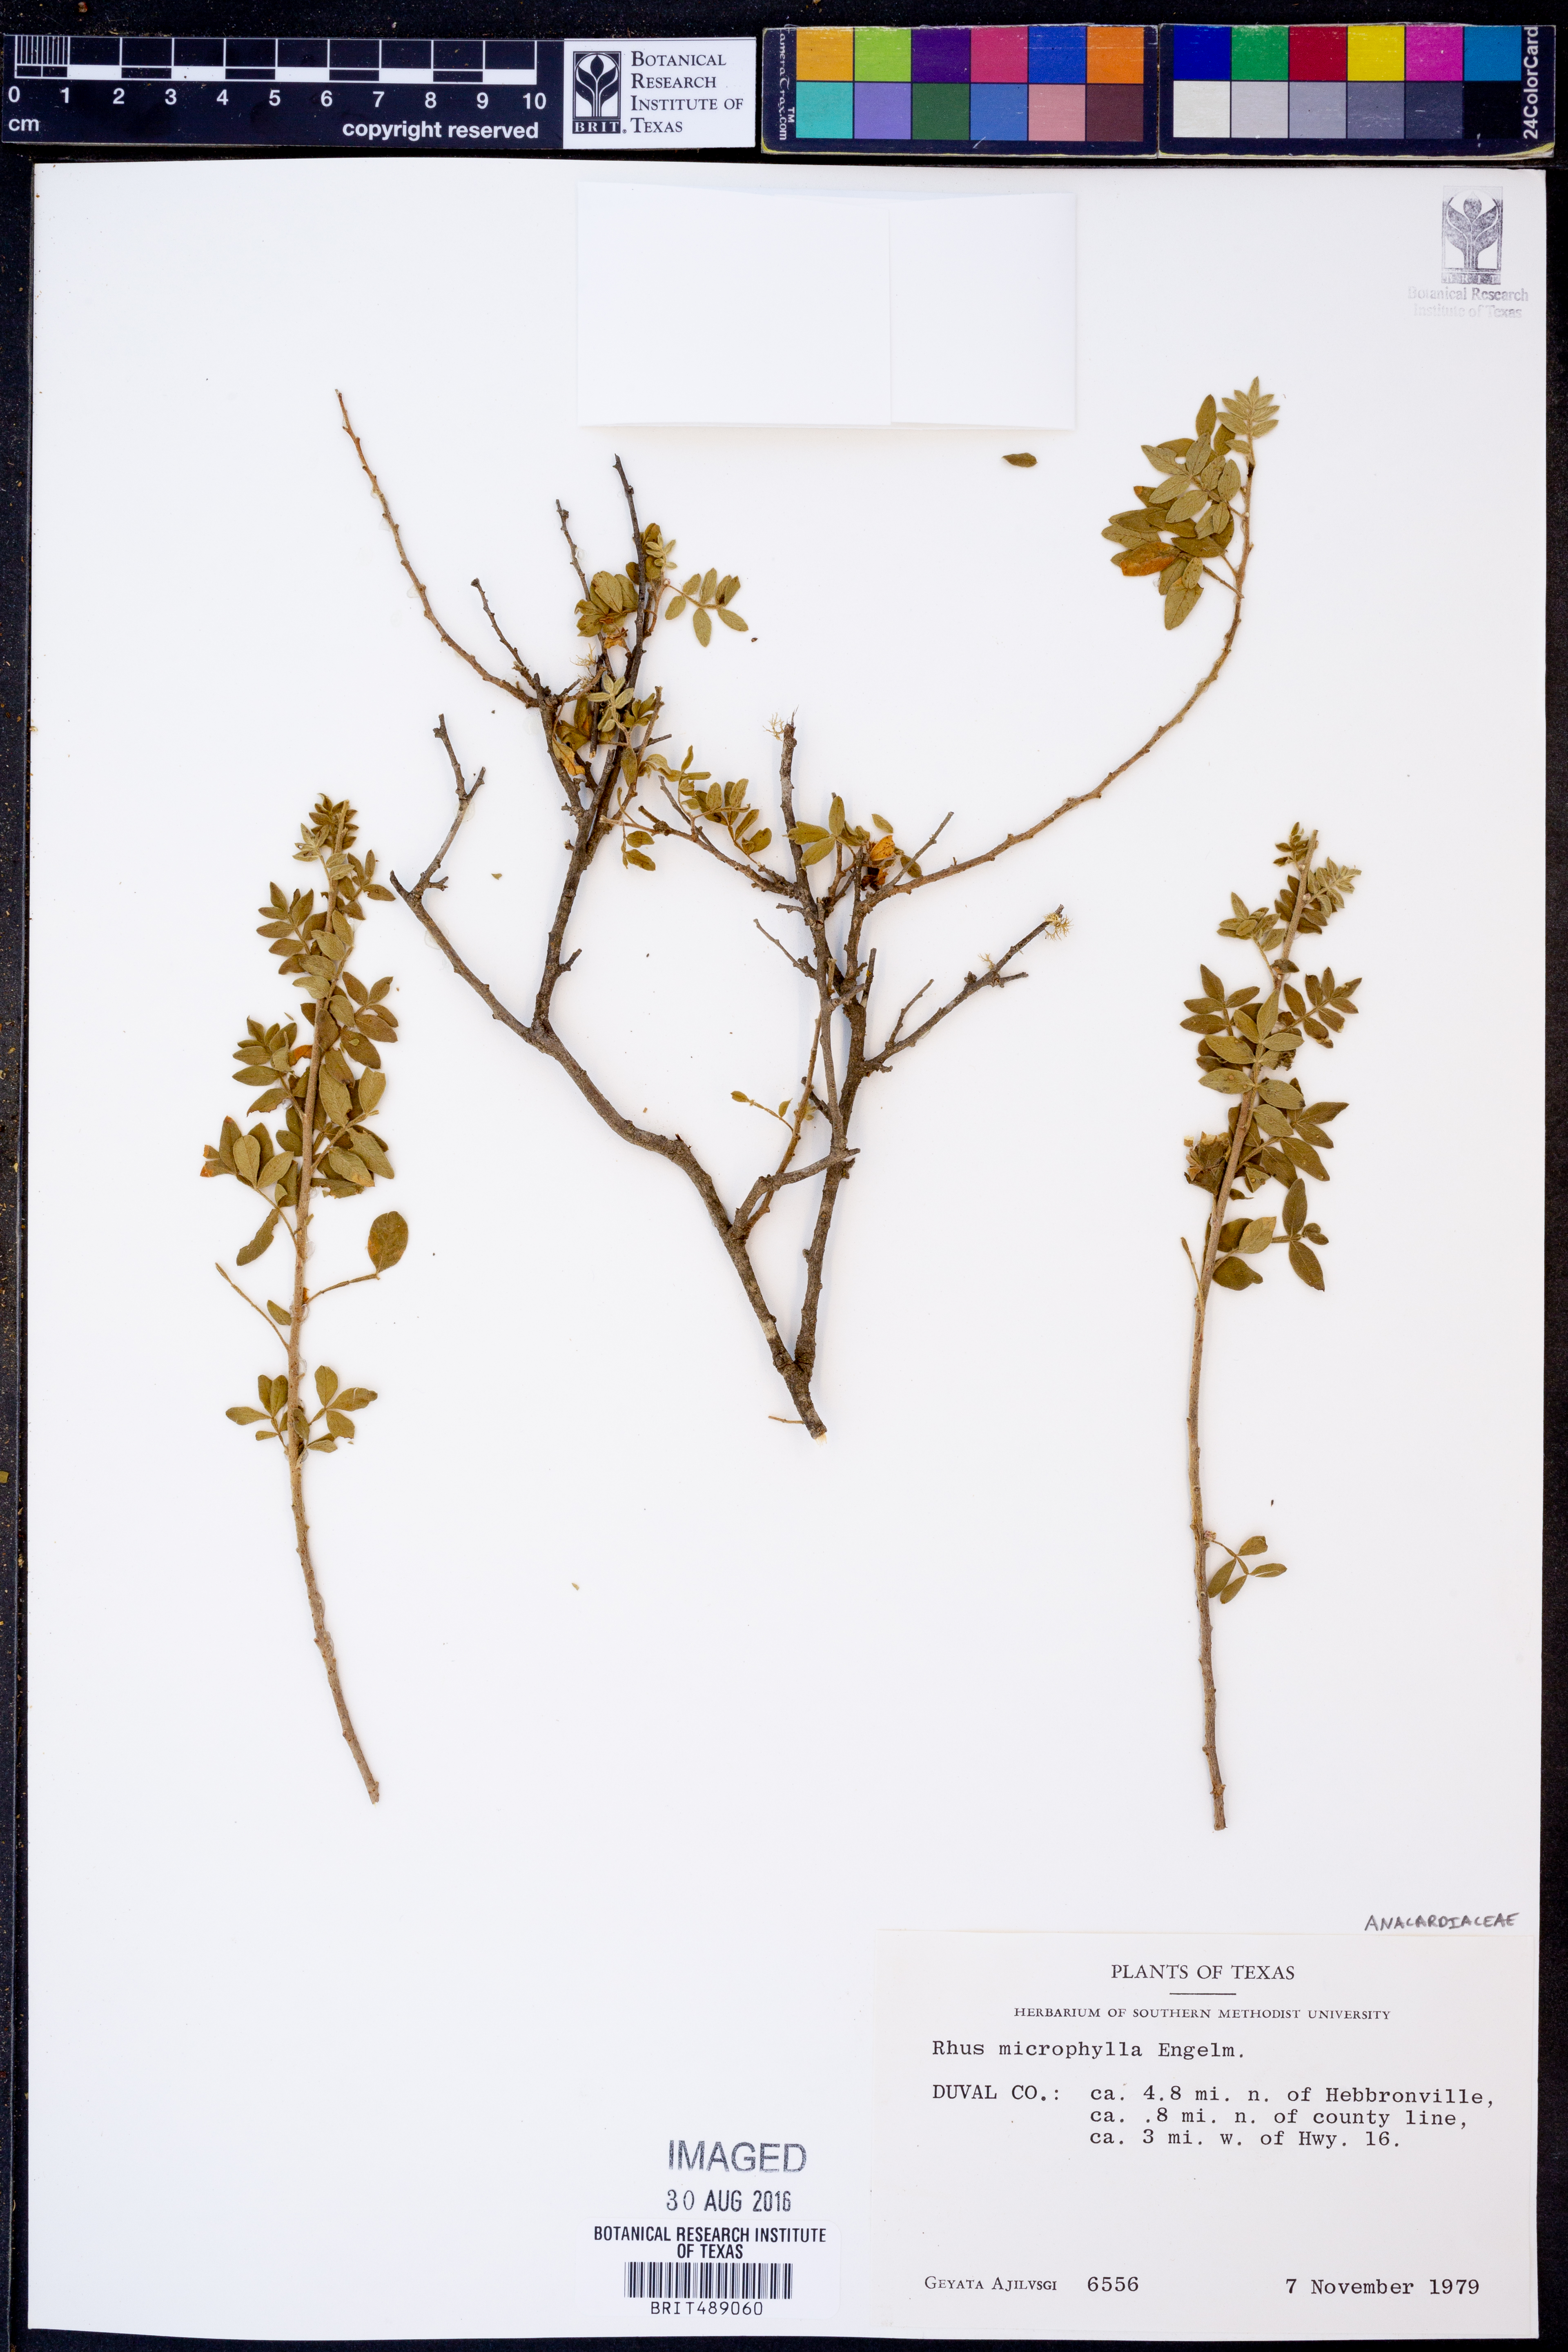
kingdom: Plantae
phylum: Tracheophyta
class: Magnoliopsida
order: Sapindales
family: Anacardiaceae
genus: Rhus
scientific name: Rhus microphylla
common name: Desert sumac
